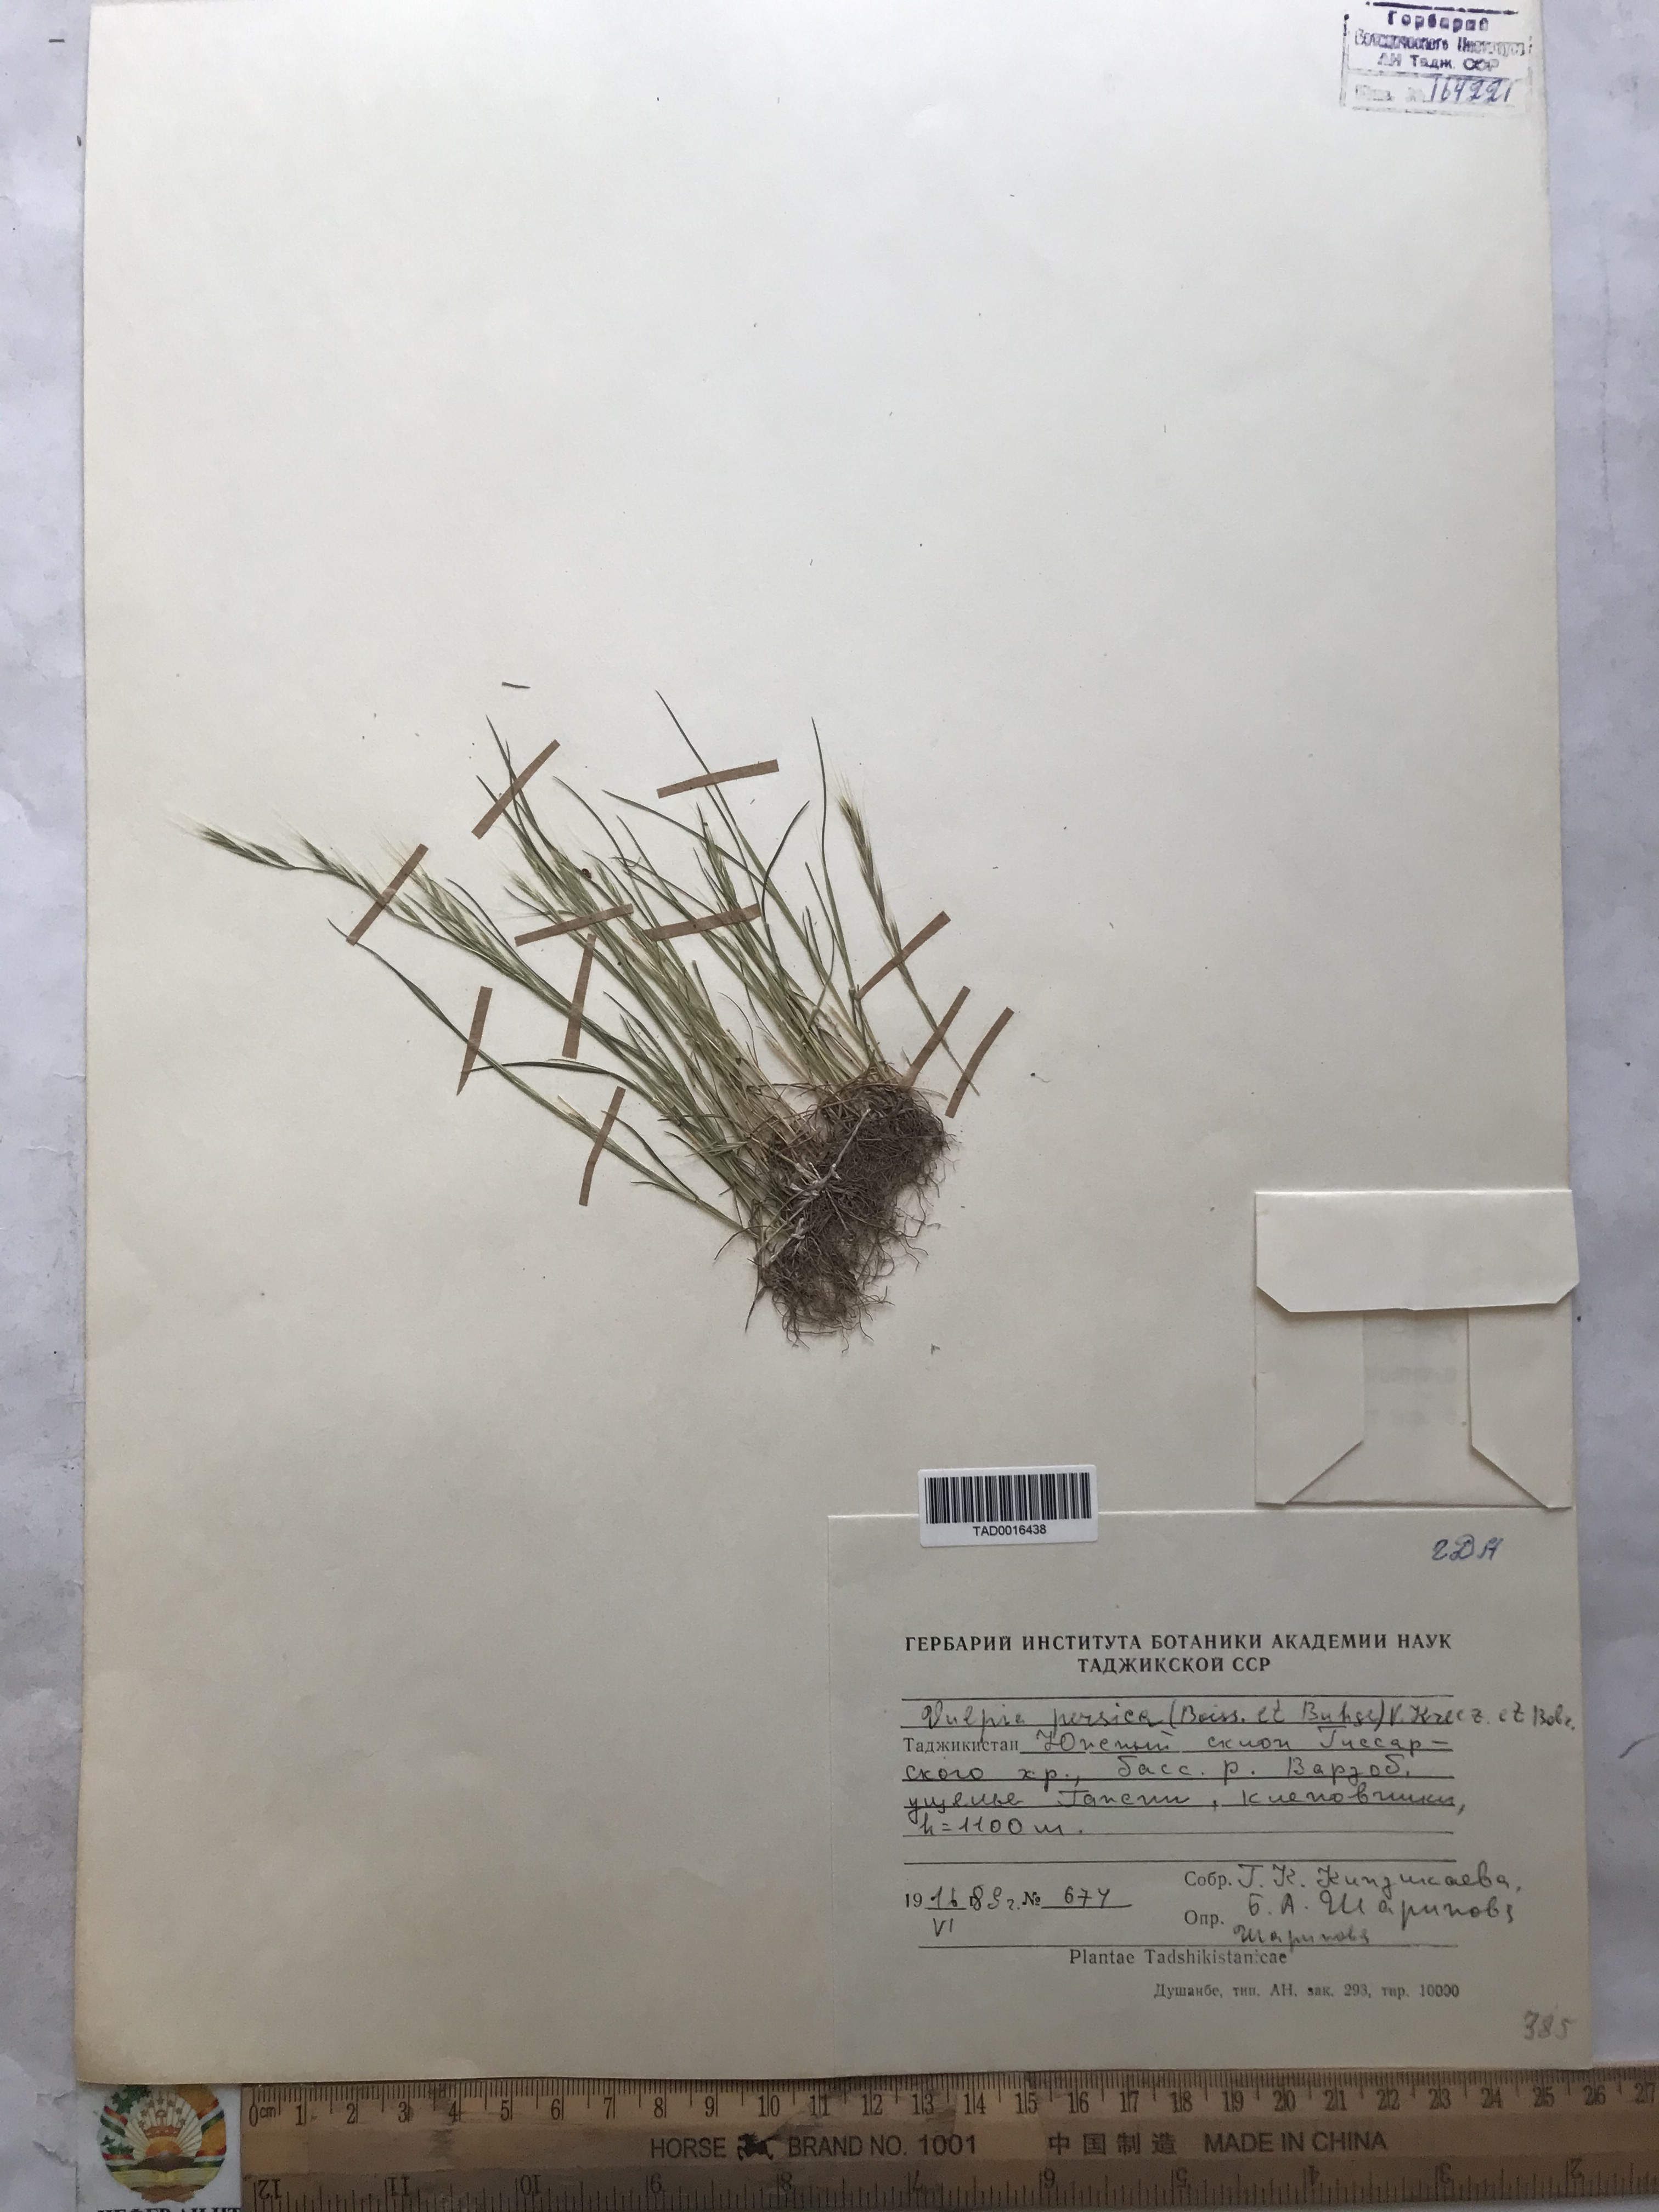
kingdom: Plantae
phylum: Tracheophyta
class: Liliopsida
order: Poales
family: Poaceae
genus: Festuca
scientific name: Festuca Vulpia persica
